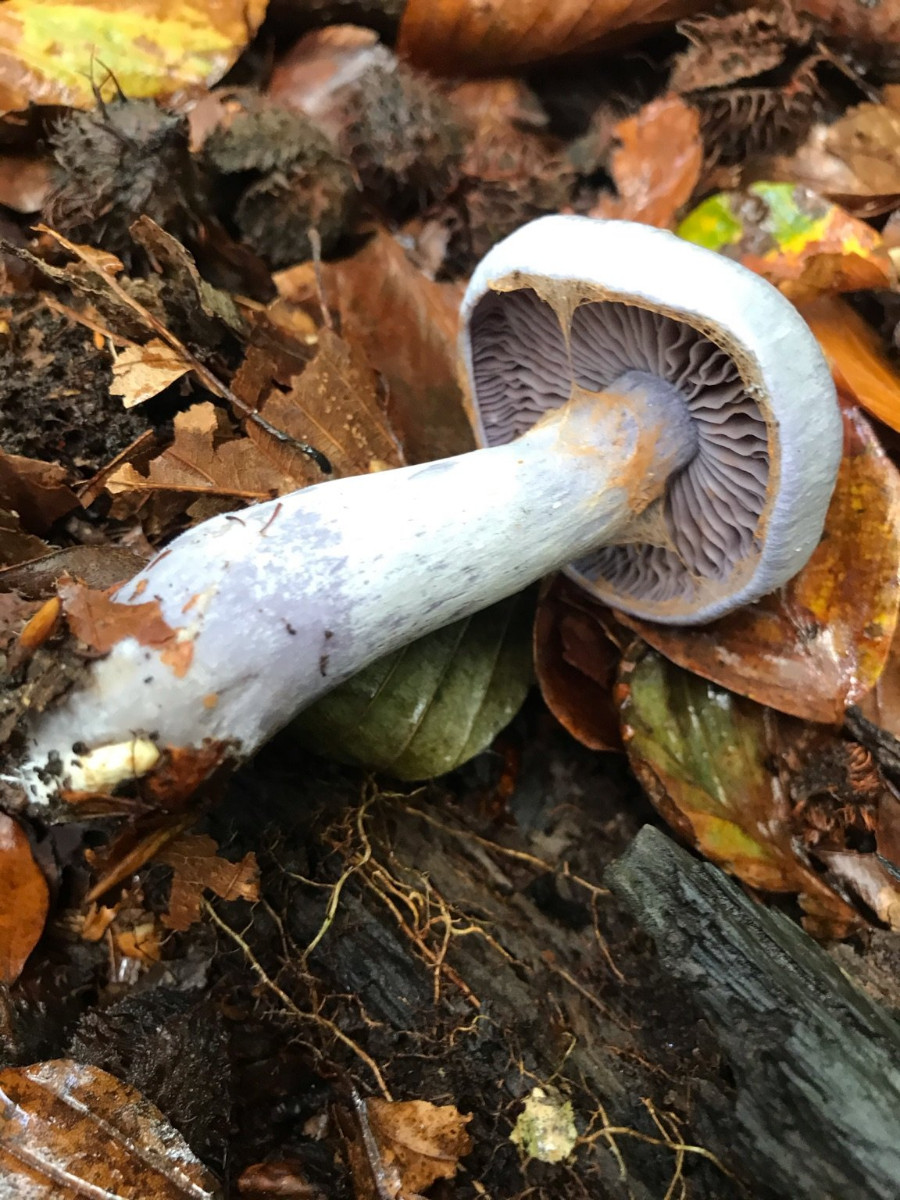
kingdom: Fungi
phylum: Basidiomycota
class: Agaricomycetes
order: Agaricales
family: Cortinariaceae
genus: Cortinarius
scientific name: Cortinarius
